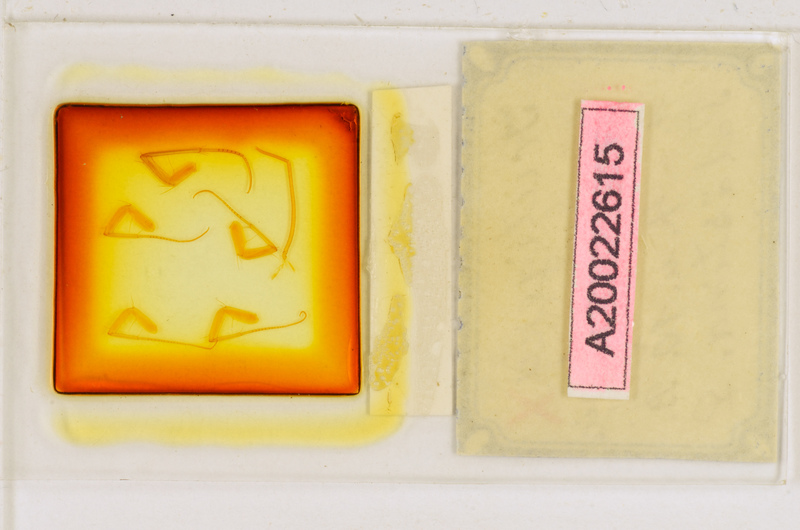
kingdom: Animalia
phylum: Arthropoda
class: Chilopoda
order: Scutigeromorpha
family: Scutigeridae
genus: Scutigera
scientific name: Scutigera coleoptrata
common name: House centipede
